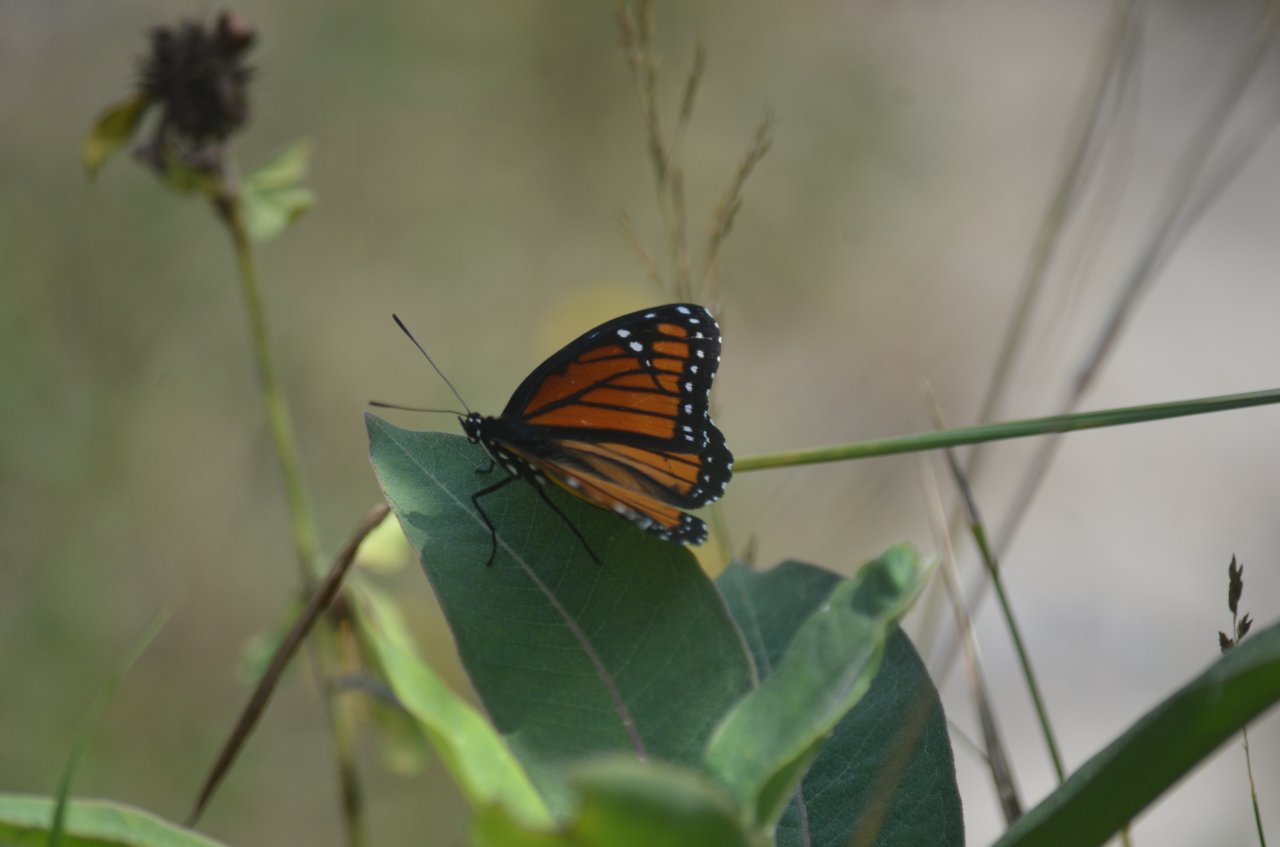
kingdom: Animalia
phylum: Arthropoda
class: Insecta
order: Lepidoptera
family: Nymphalidae
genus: Limenitis
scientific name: Limenitis archippus
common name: Viceroy
